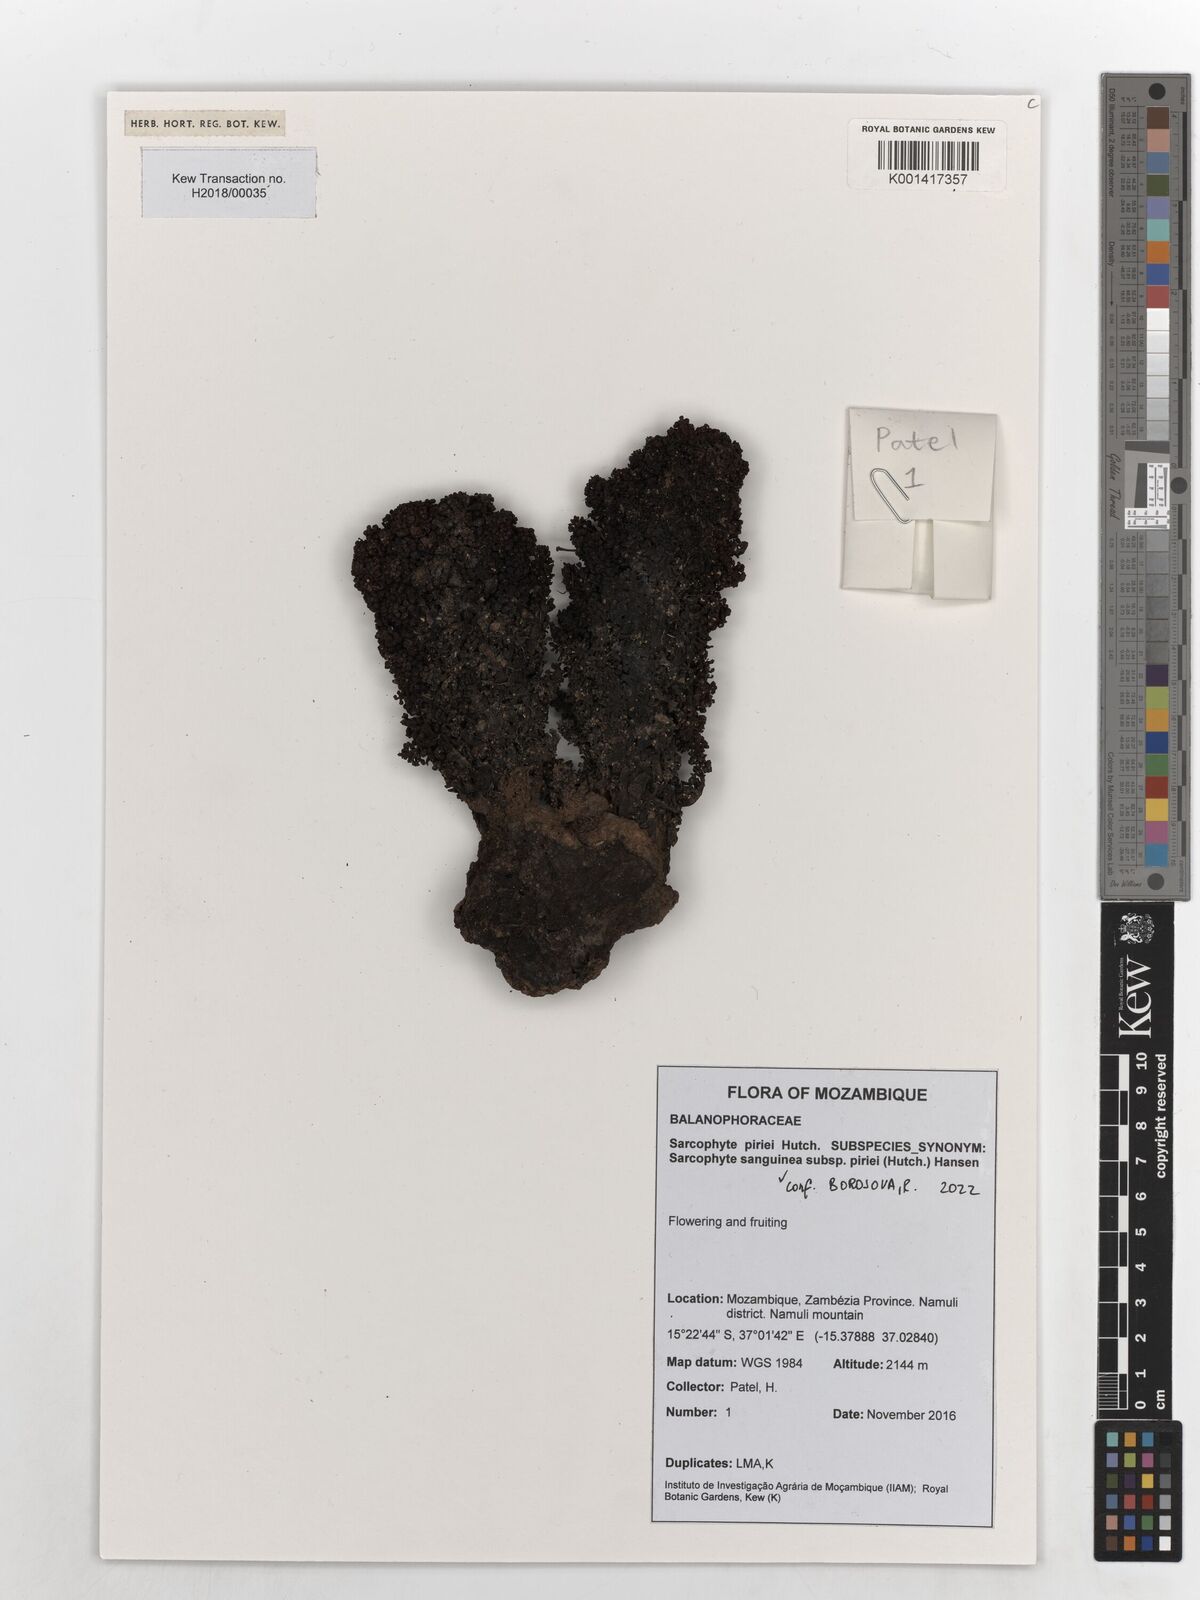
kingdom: Plantae
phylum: Tracheophyta
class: Magnoliopsida
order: Santalales
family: Balanophoraceae
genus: Sarcophyte
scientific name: Sarcophyte piriei
